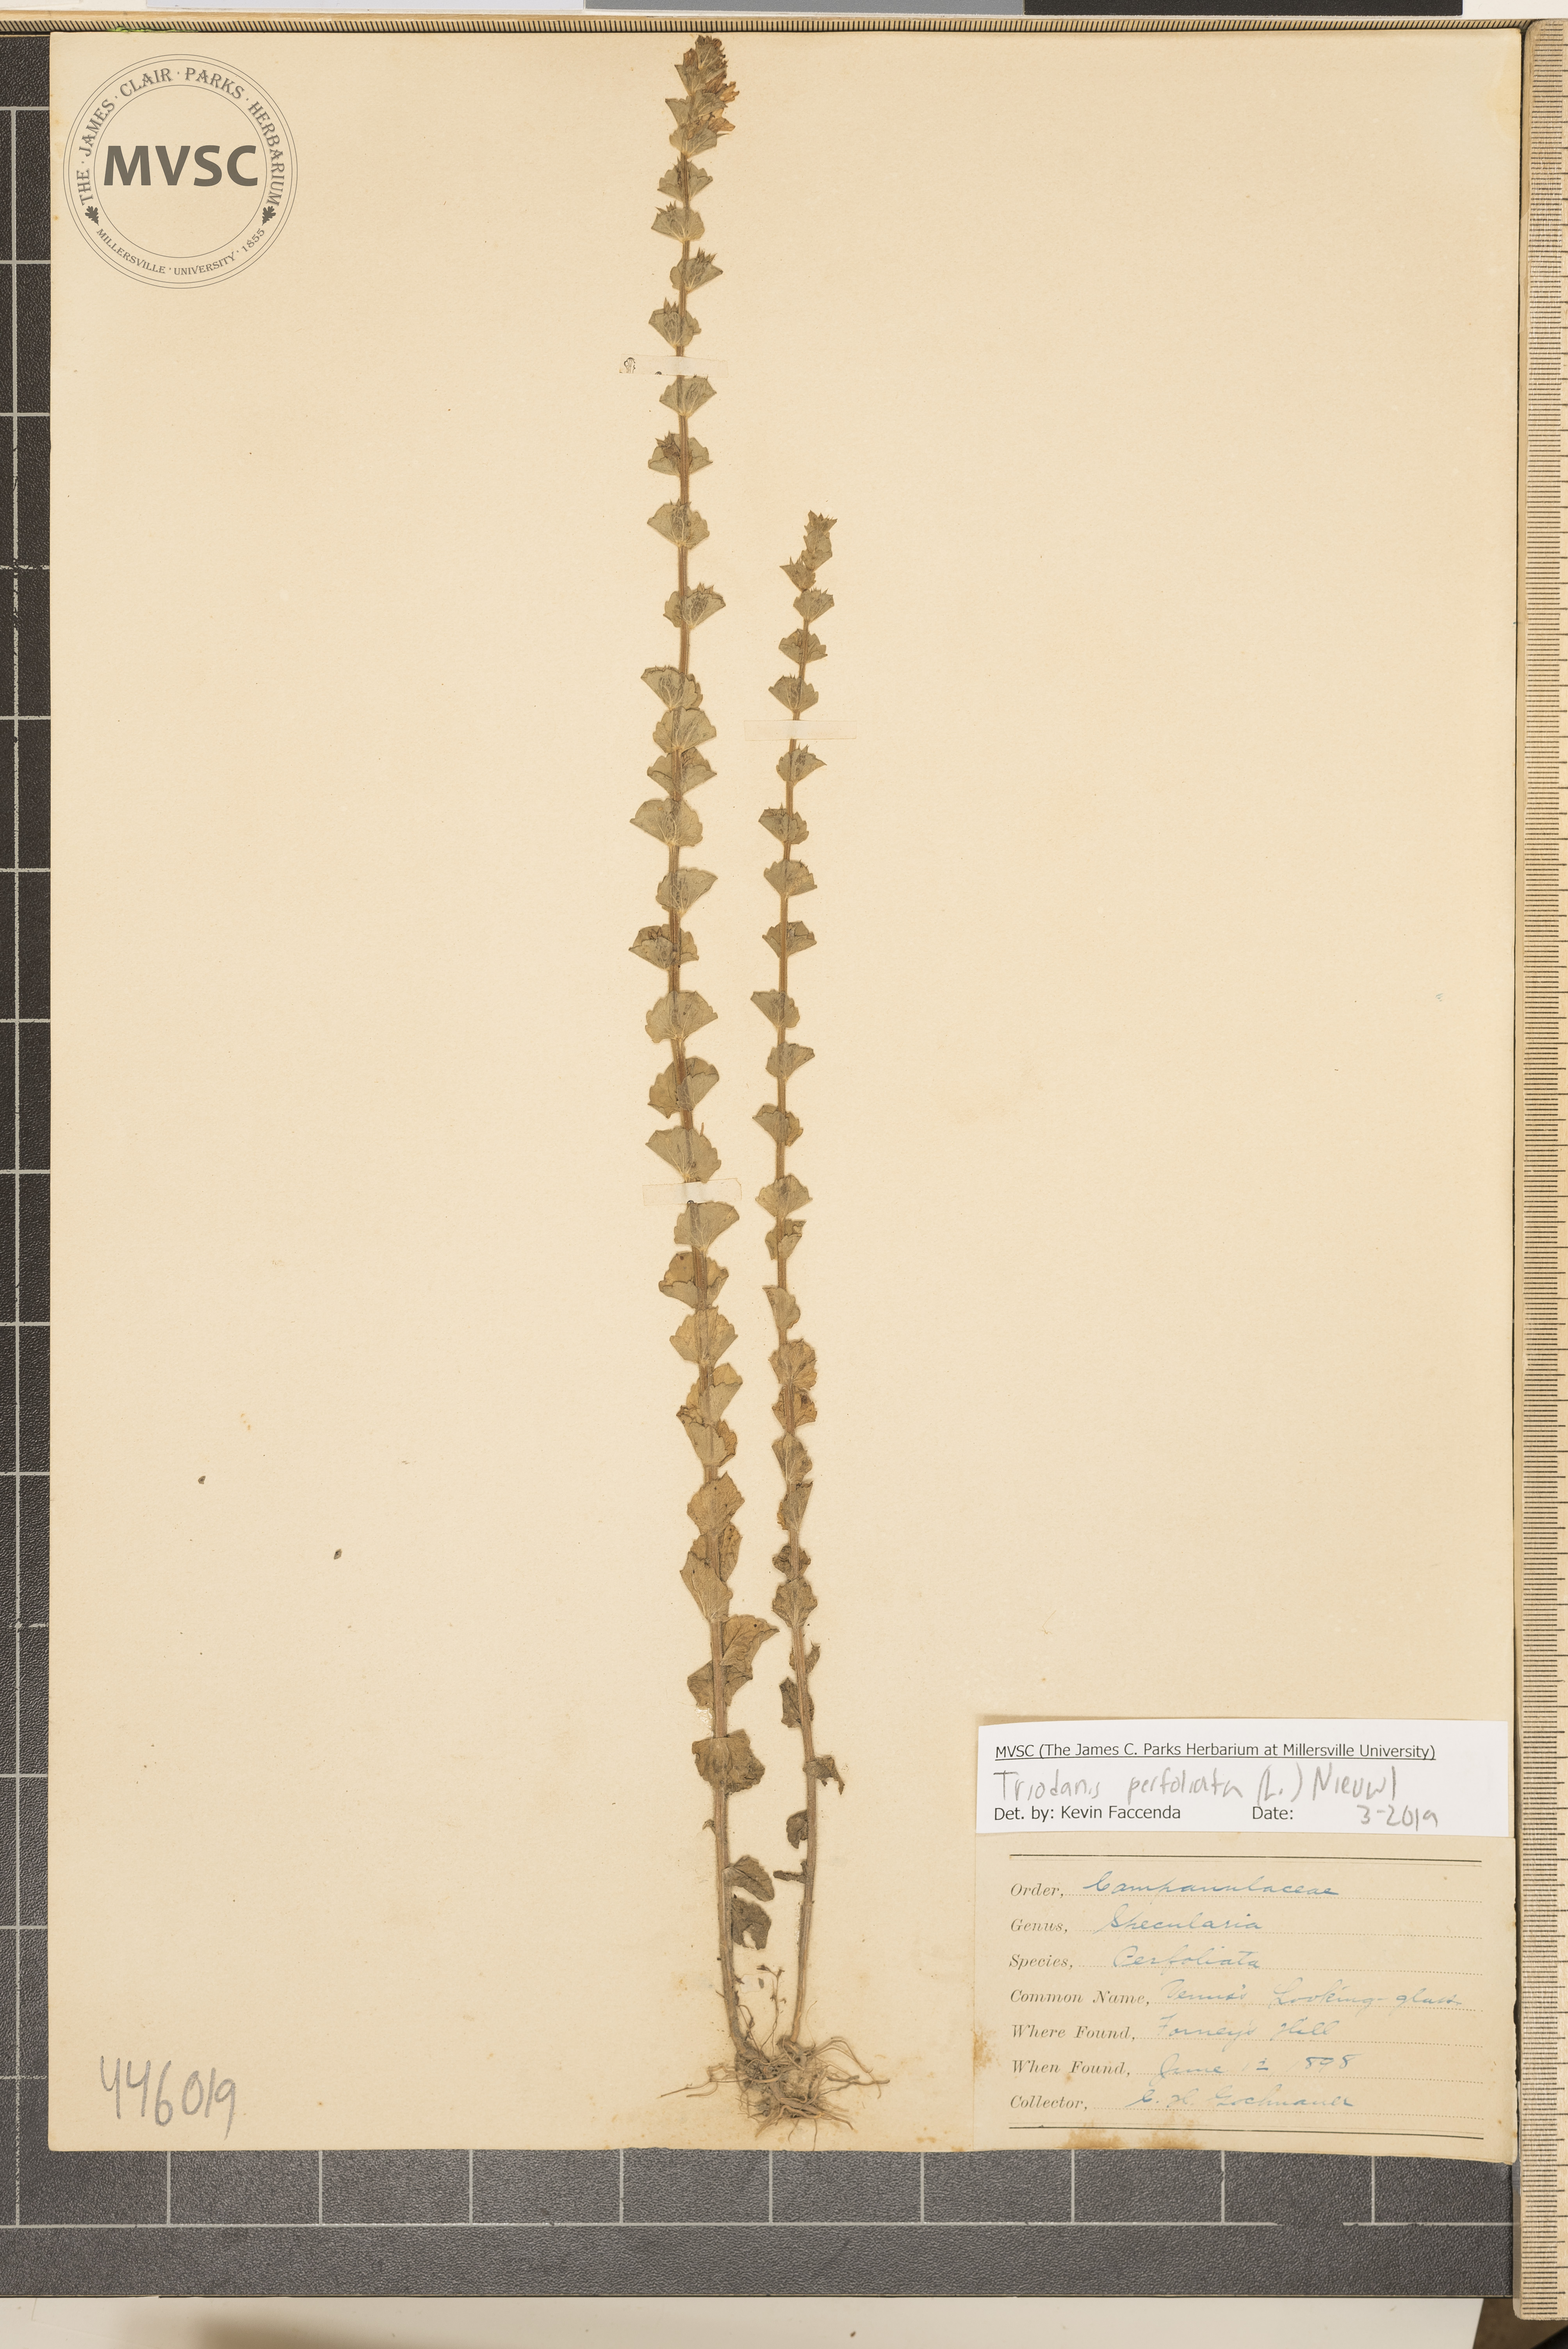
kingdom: Plantae
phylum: Tracheophyta
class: Magnoliopsida
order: Asterales
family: Campanulaceae
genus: Triodanis
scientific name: Triodanis perfoliata
